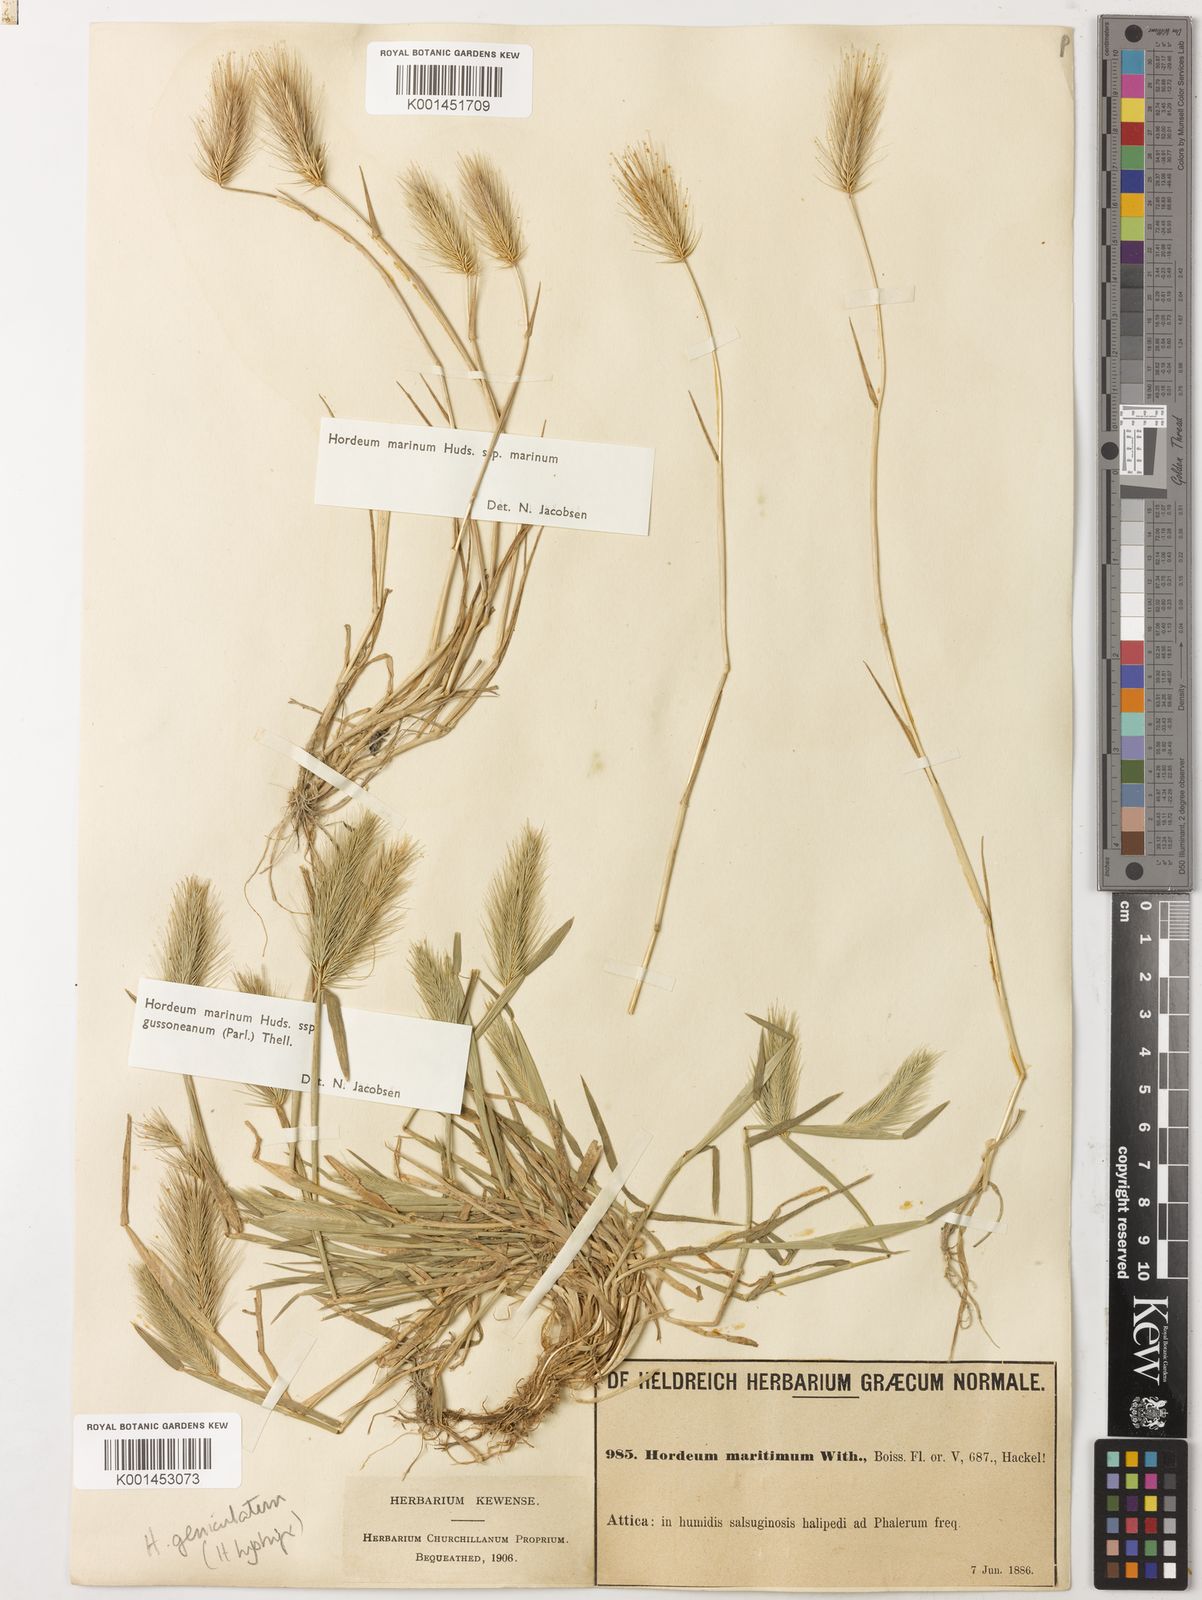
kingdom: Plantae
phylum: Tracheophyta
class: Liliopsida
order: Poales
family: Poaceae
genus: Hordeum
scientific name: Hordeum marinum
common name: Sea barley
